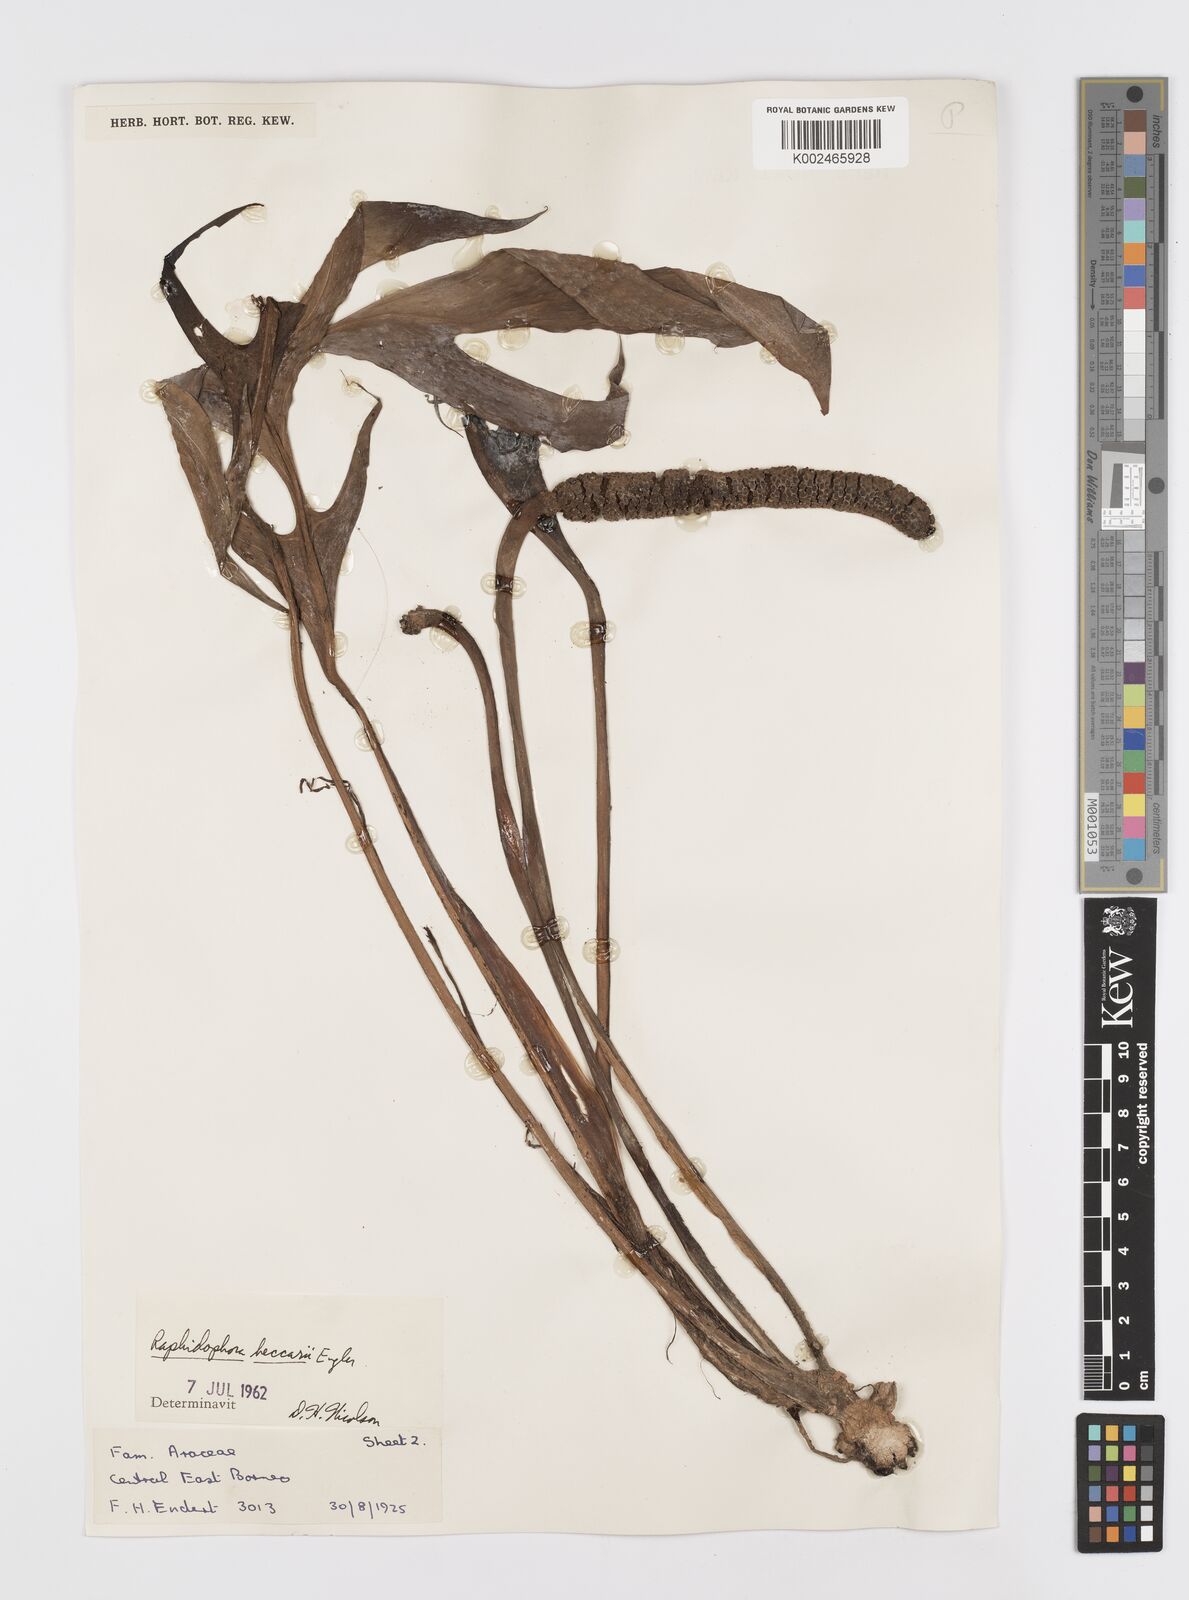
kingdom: Plantae
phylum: Tracheophyta
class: Liliopsida
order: Alismatales
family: Araceae
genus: Rhaphidophora
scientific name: Rhaphidophora beccarii
